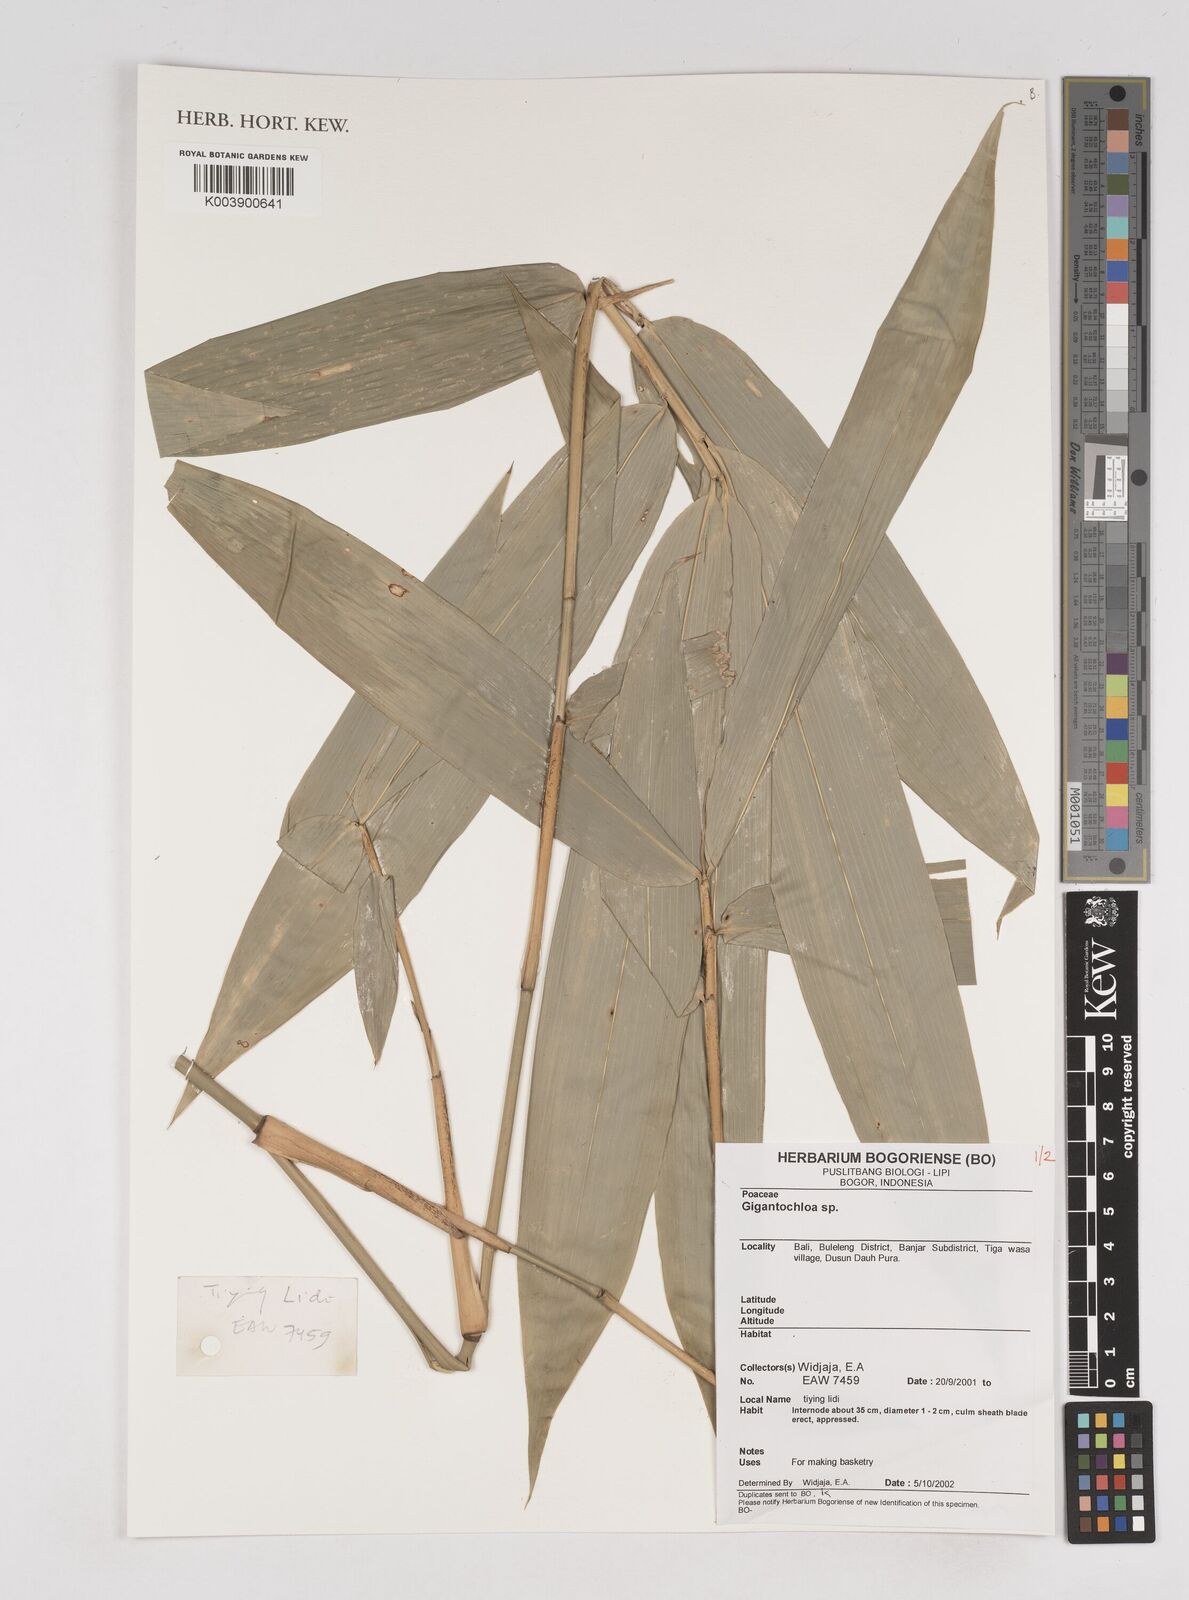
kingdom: Plantae
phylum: Tracheophyta
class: Liliopsida
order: Poales
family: Poaceae
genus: Gigantochloa
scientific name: Gigantochloa
